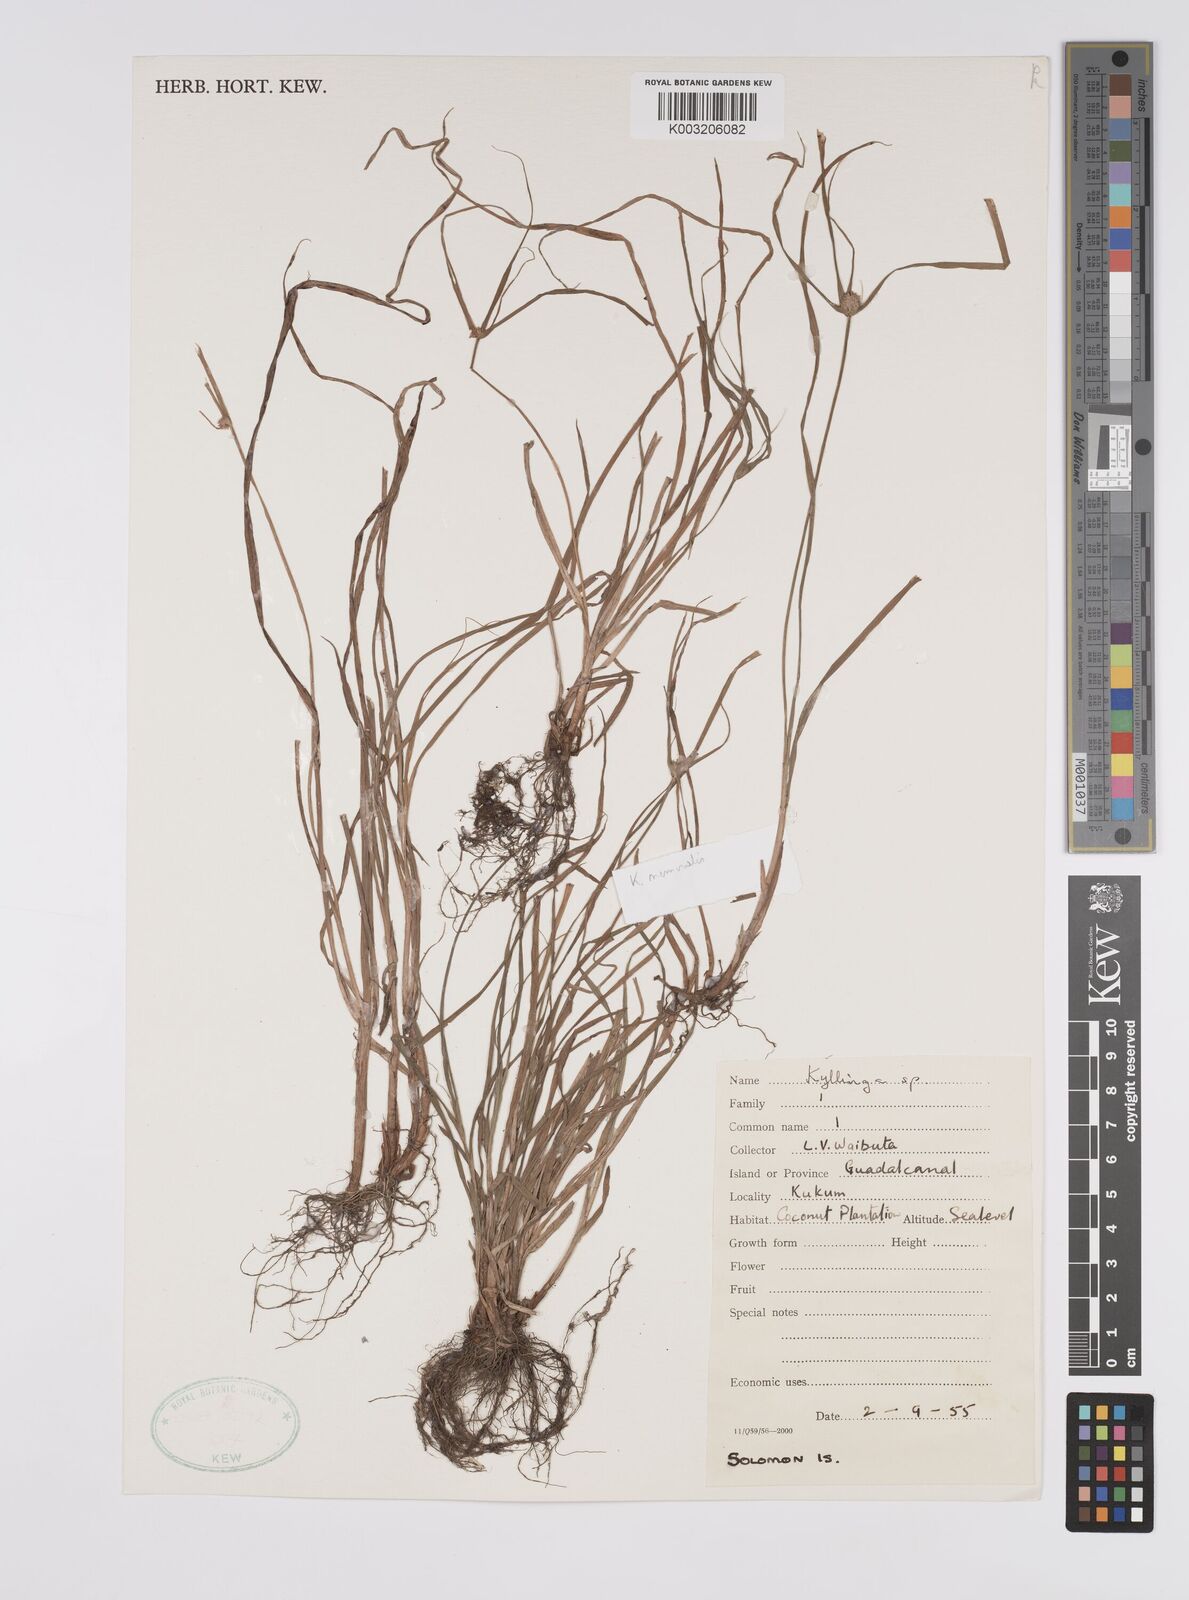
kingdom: Plantae
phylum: Tracheophyta
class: Liliopsida
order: Poales
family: Cyperaceae
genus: Cyperus
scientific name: Cyperus nemoralis
